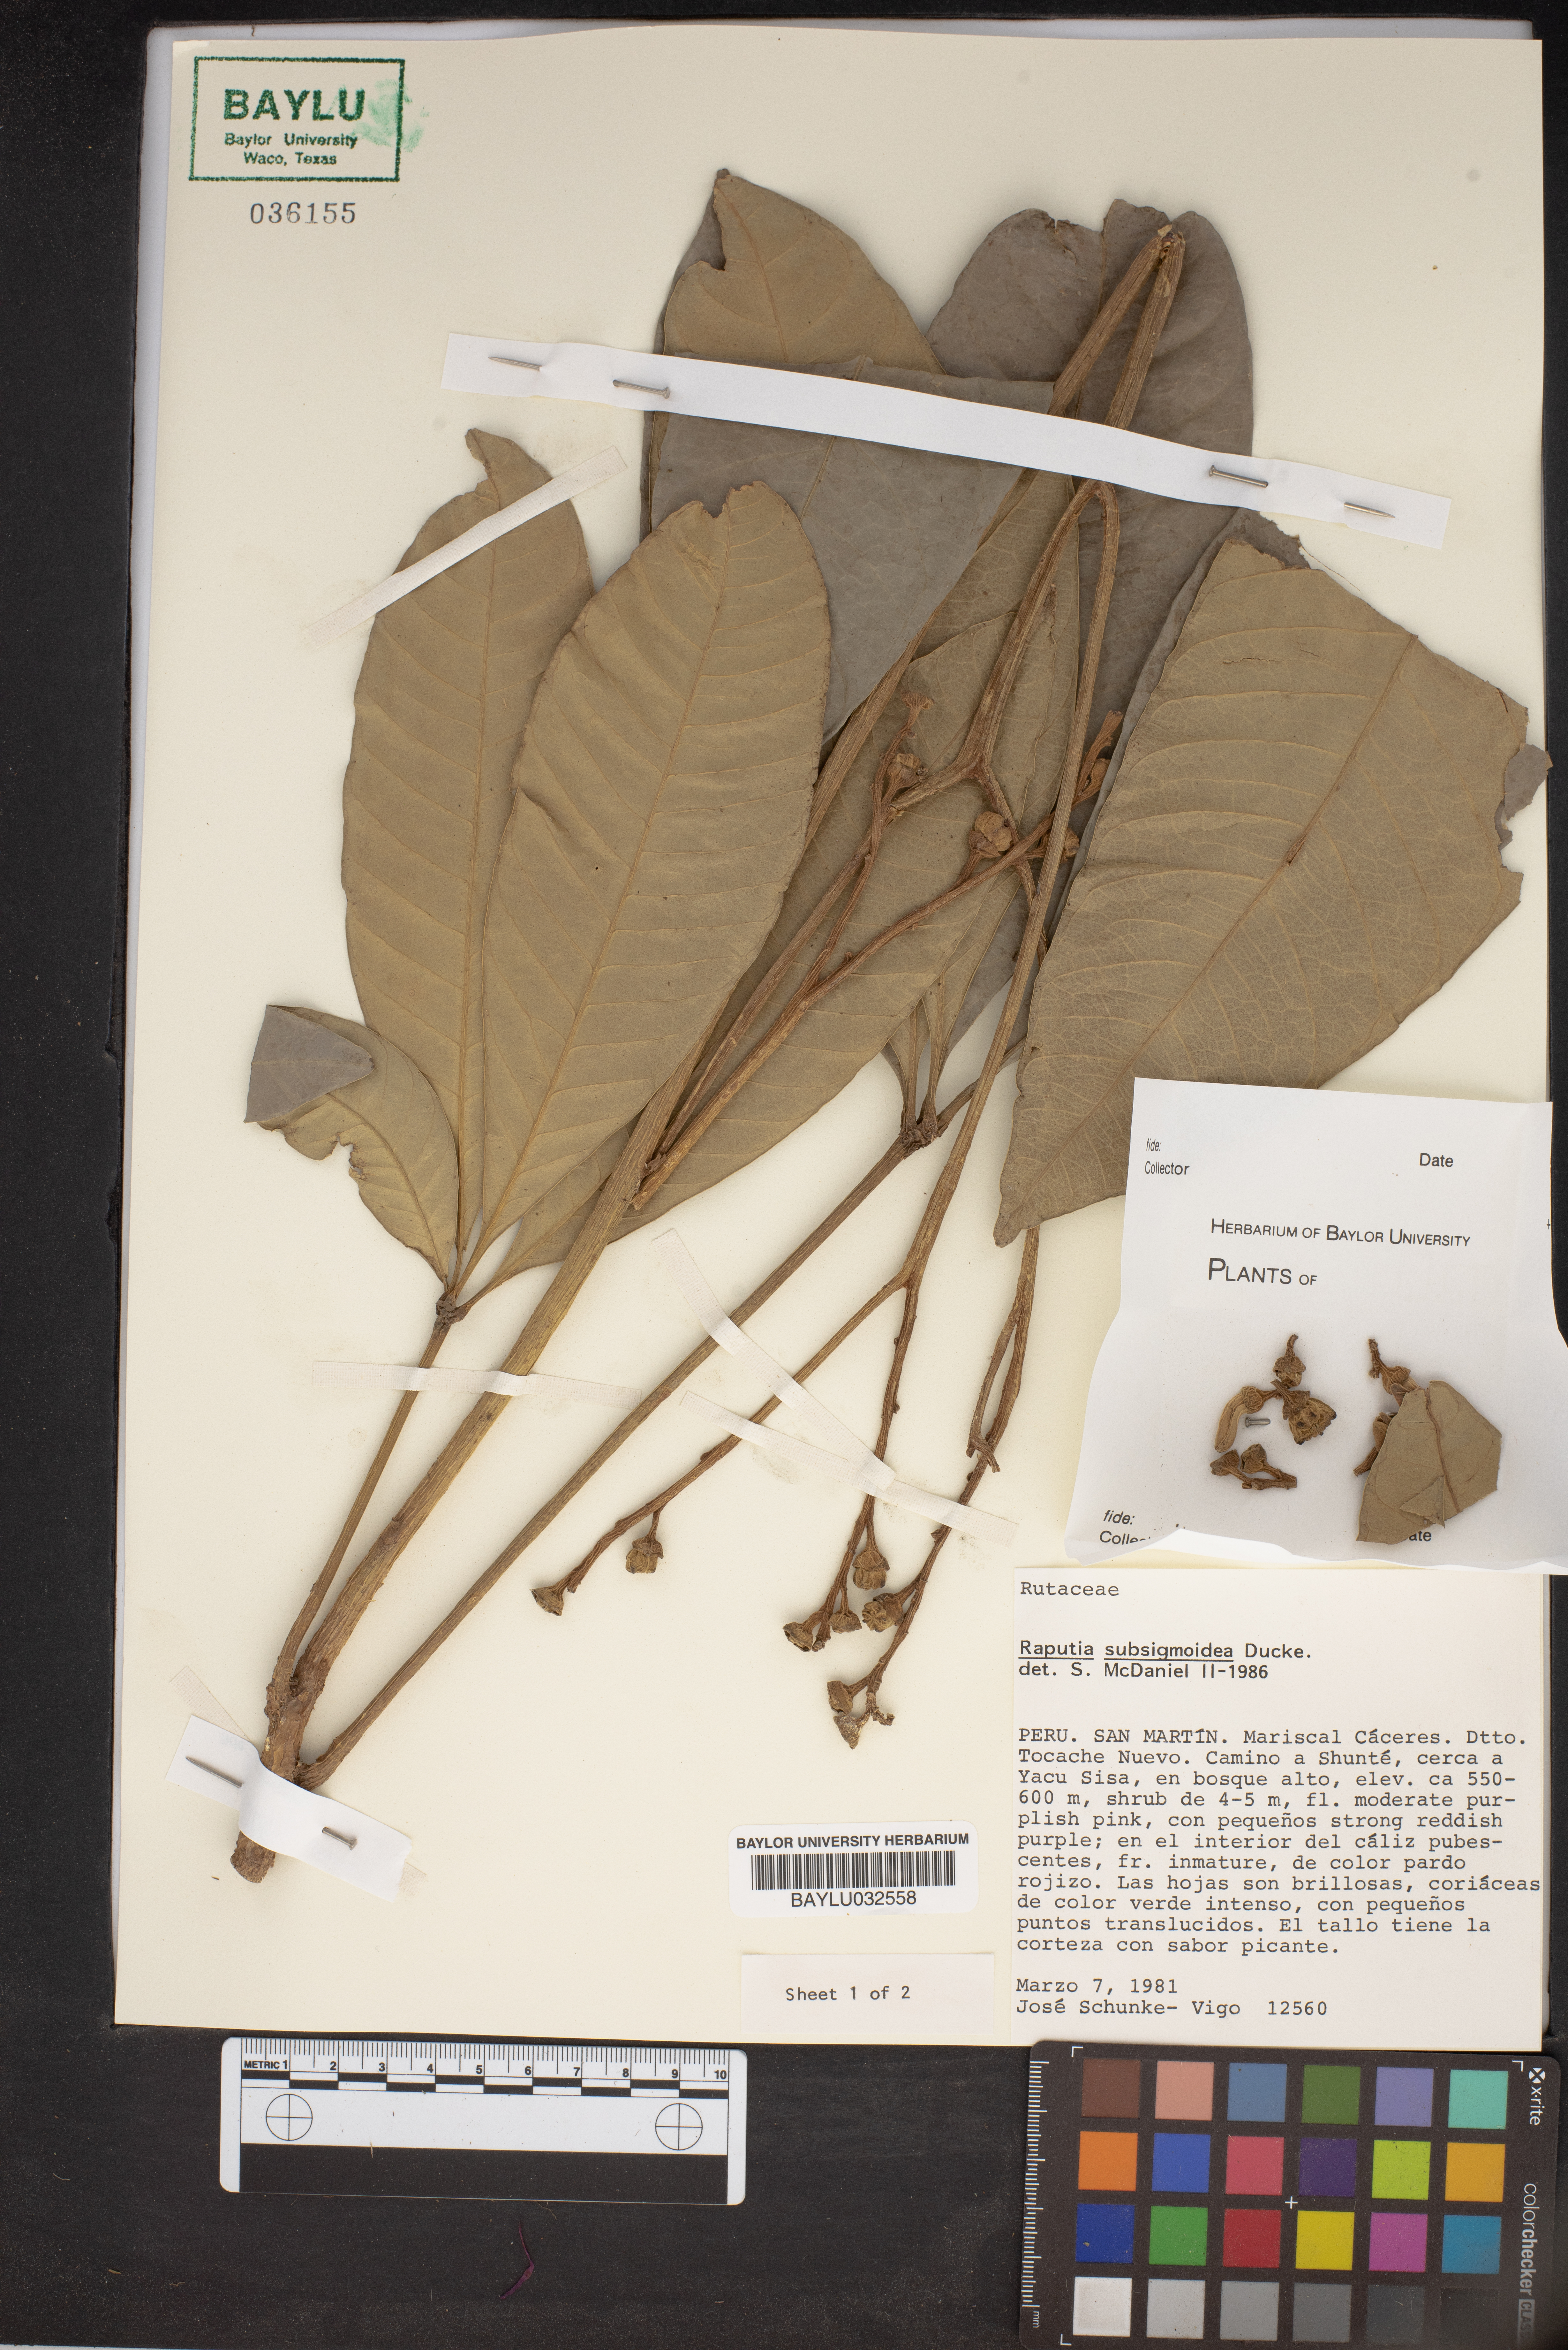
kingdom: Plantae
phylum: Tracheophyta
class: Magnoliopsida
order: Sapindales
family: Rutaceae
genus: Raputiarana
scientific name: Raputiarana subsigmoidea
